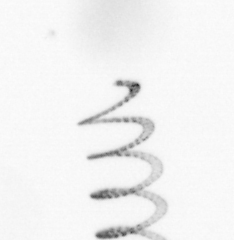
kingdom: Chromista
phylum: Ochrophyta
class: Bacillariophyceae
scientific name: Bacillariophyceae
